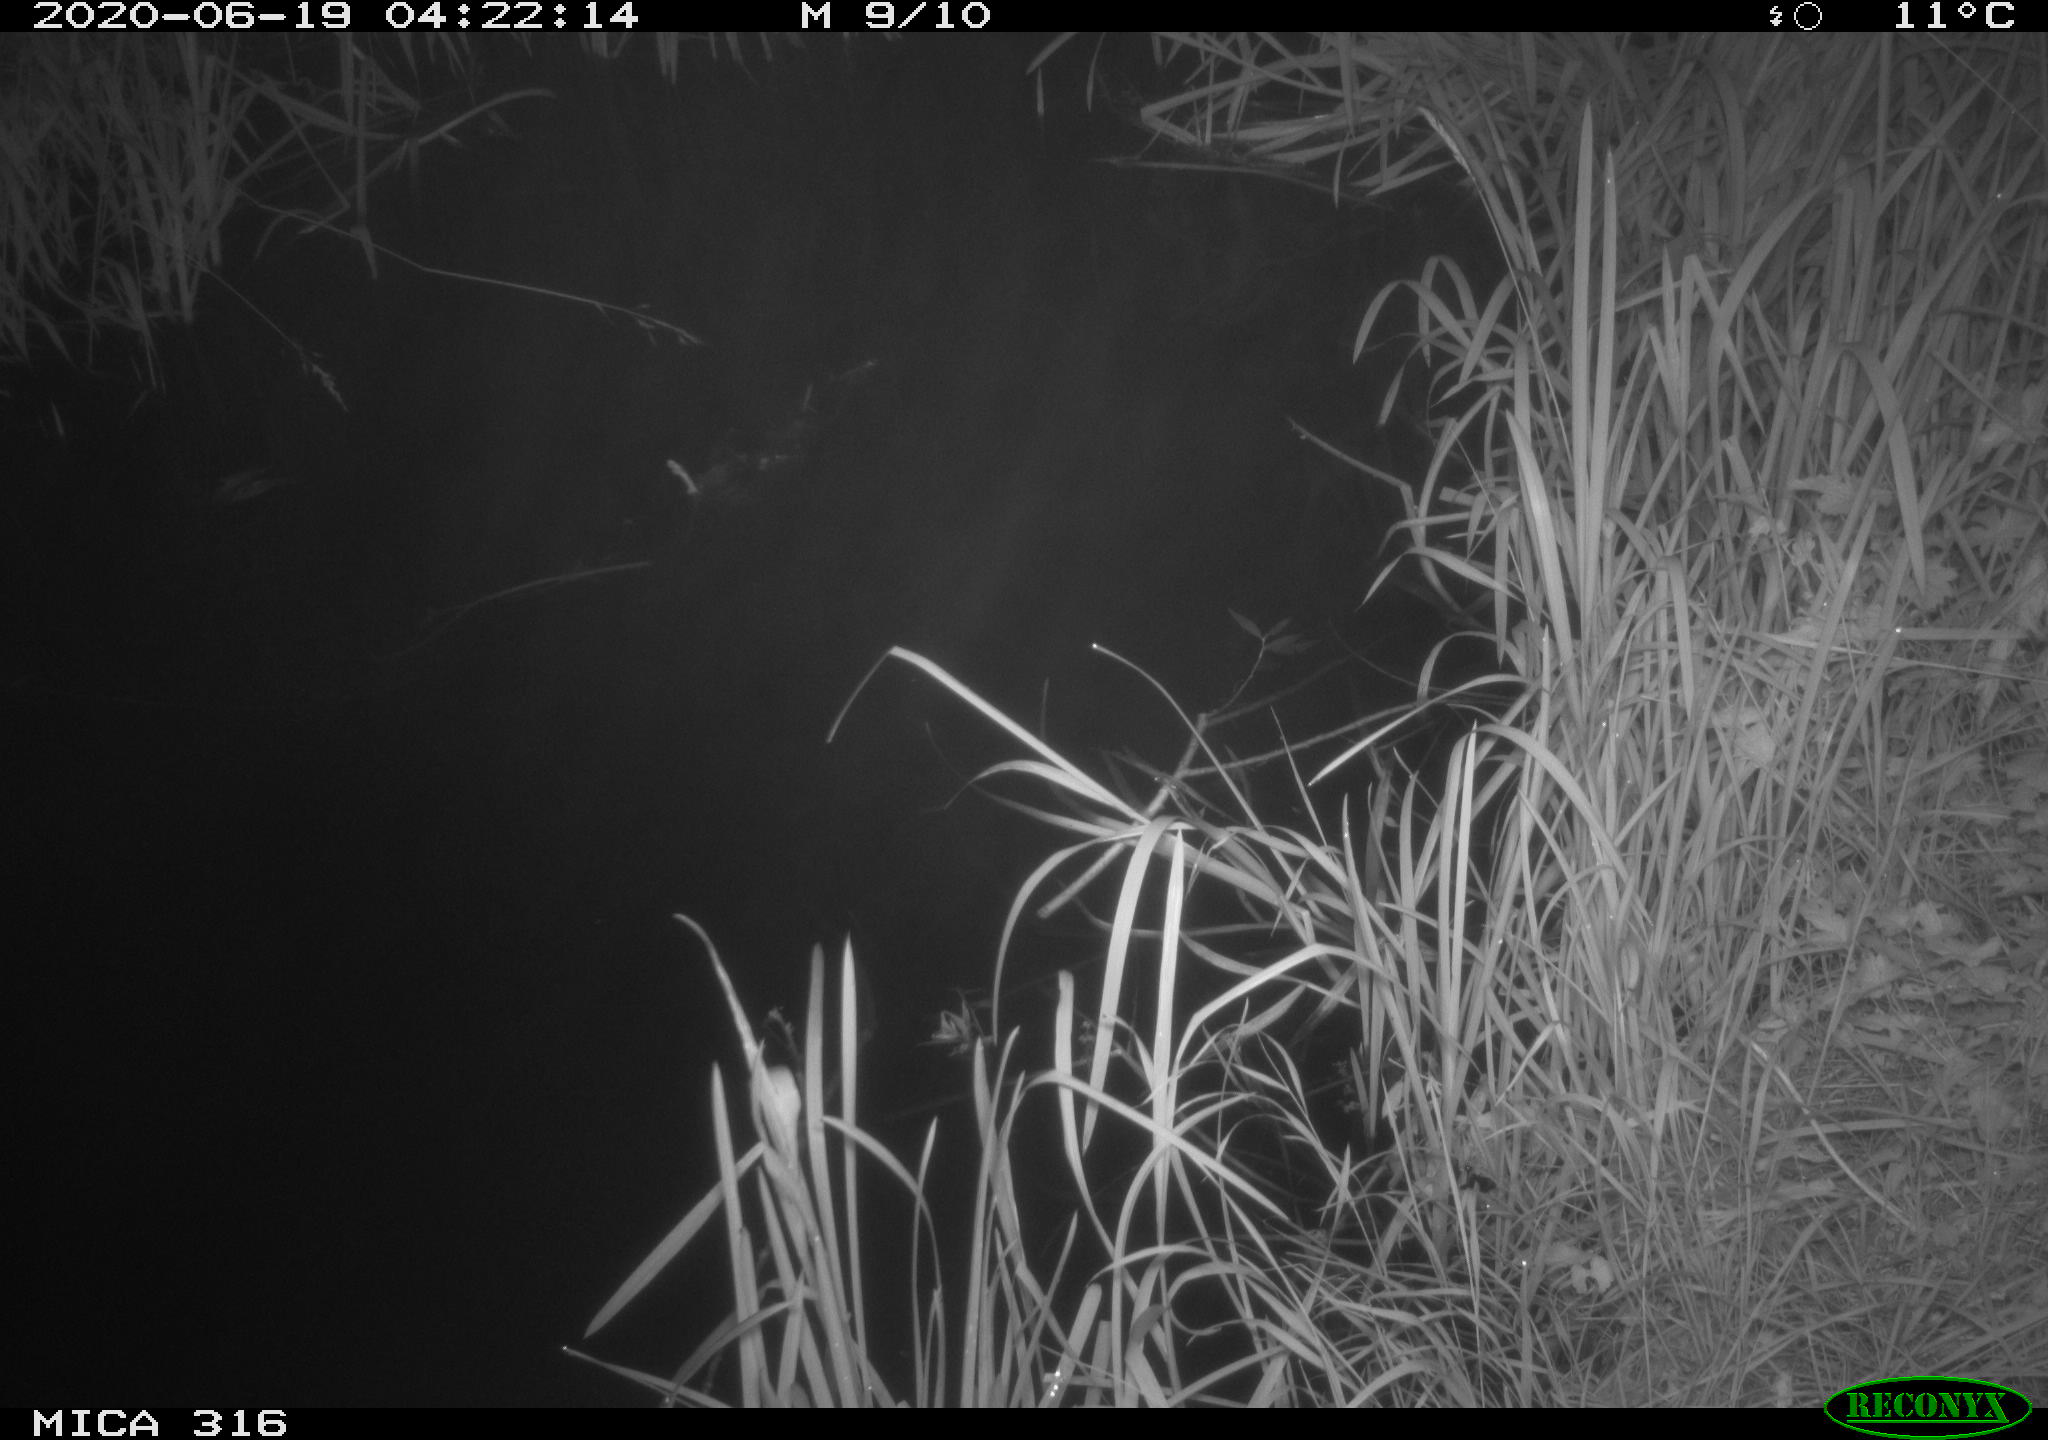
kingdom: Animalia
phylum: Chordata
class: Aves
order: Gruiformes
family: Rallidae
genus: Gallinula
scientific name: Gallinula chloropus
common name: Common moorhen
